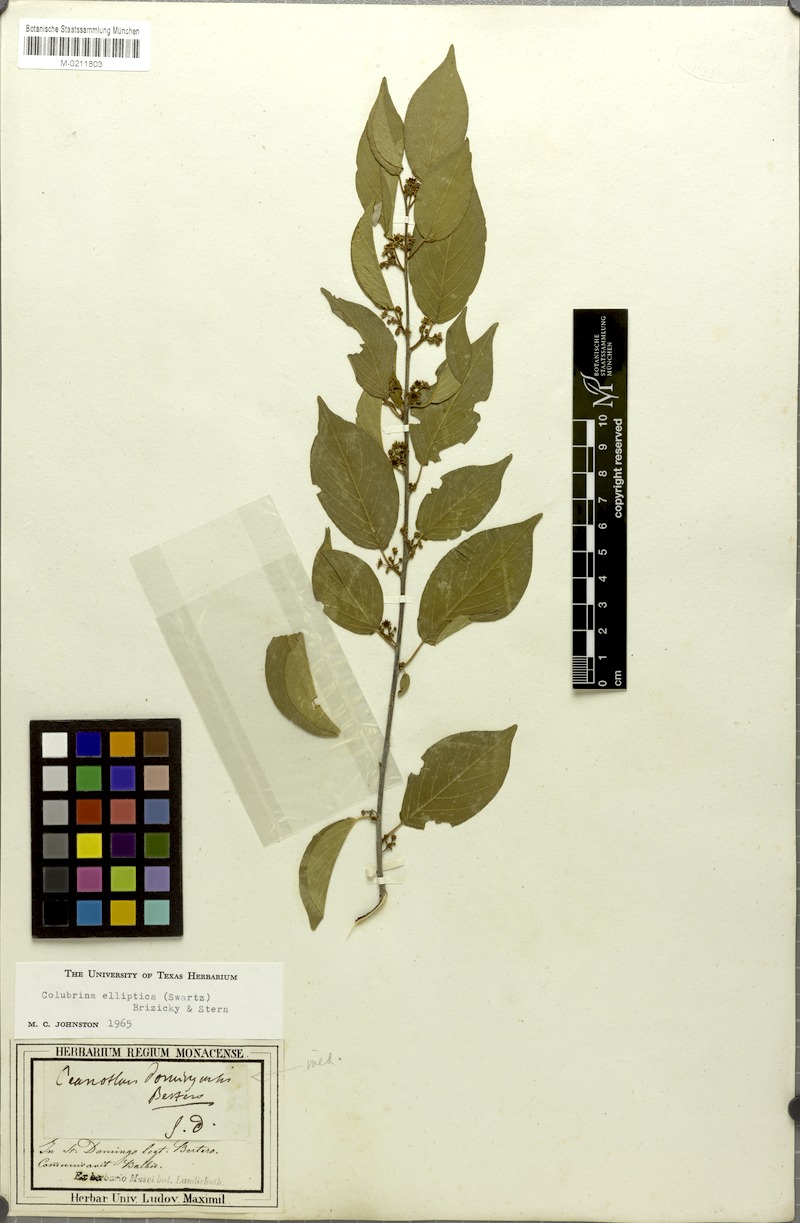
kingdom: Plantae
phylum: Tracheophyta
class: Magnoliopsida
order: Rosales
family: Rhamnaceae
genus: Colubrina
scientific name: Colubrina elliptica
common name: Soldierwood
